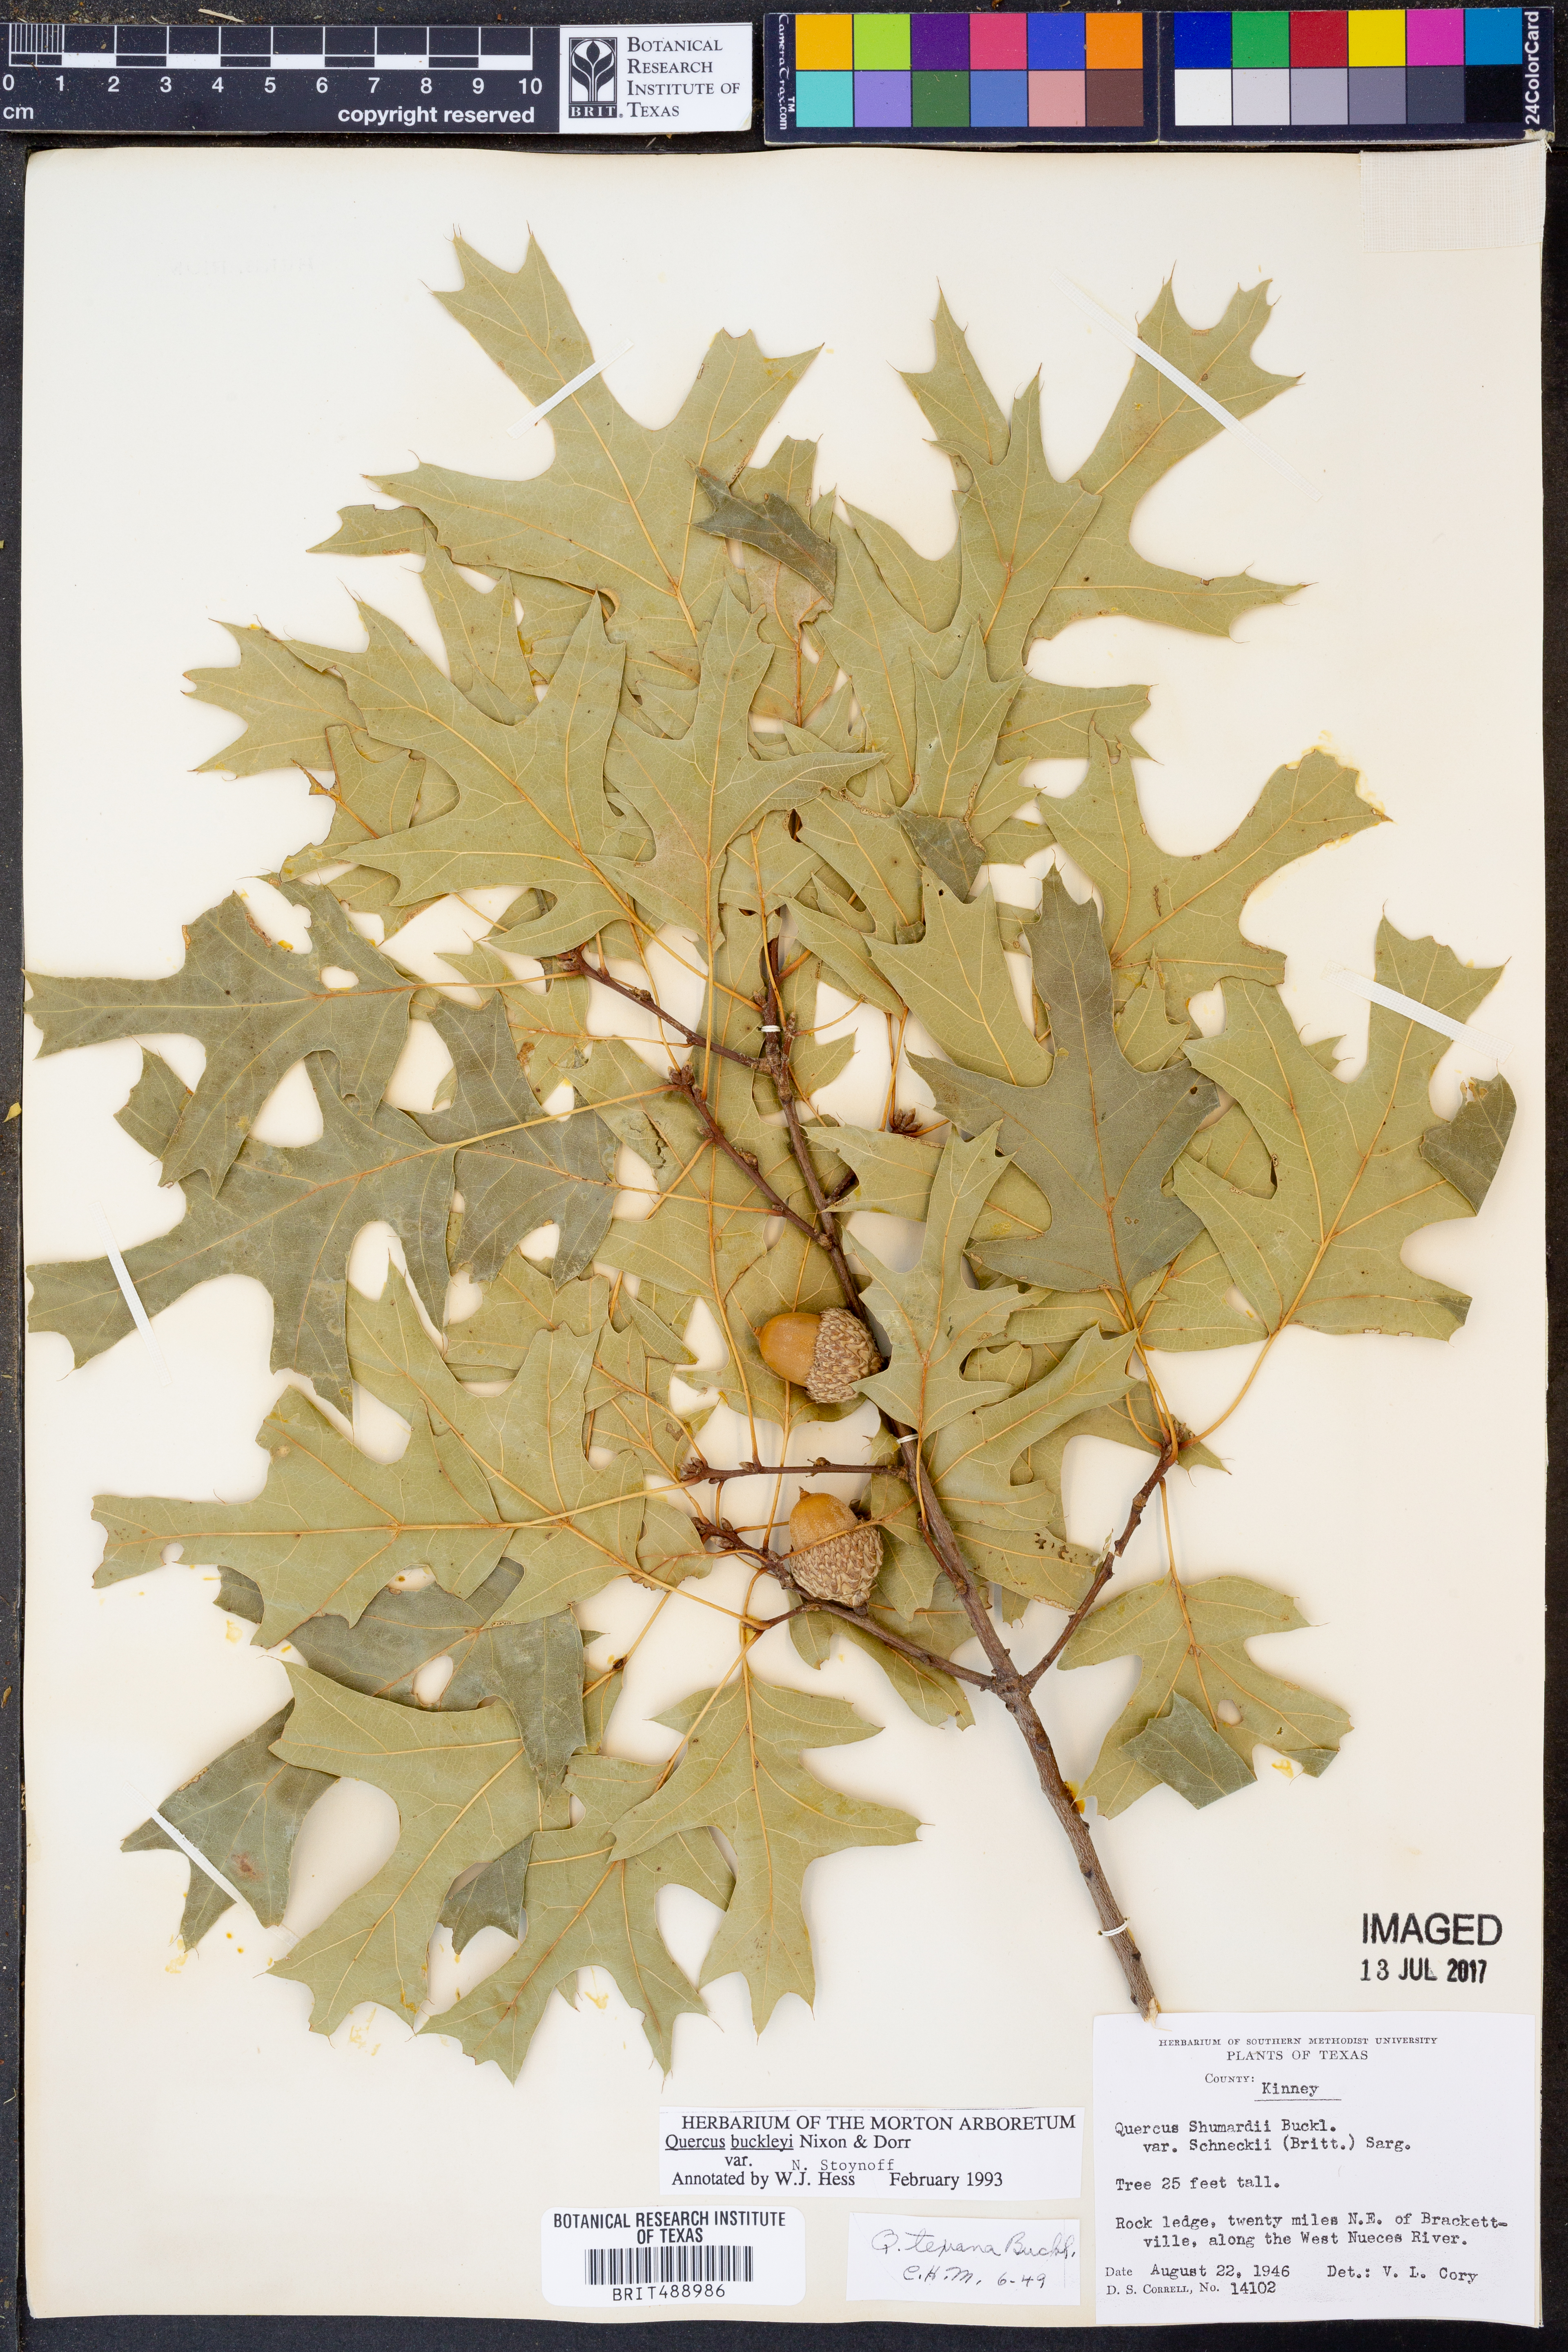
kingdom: Plantae
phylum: Tracheophyta
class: Magnoliopsida
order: Fagales
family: Fagaceae
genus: Quercus
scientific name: Quercus buckleyi
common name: Buckley oak
